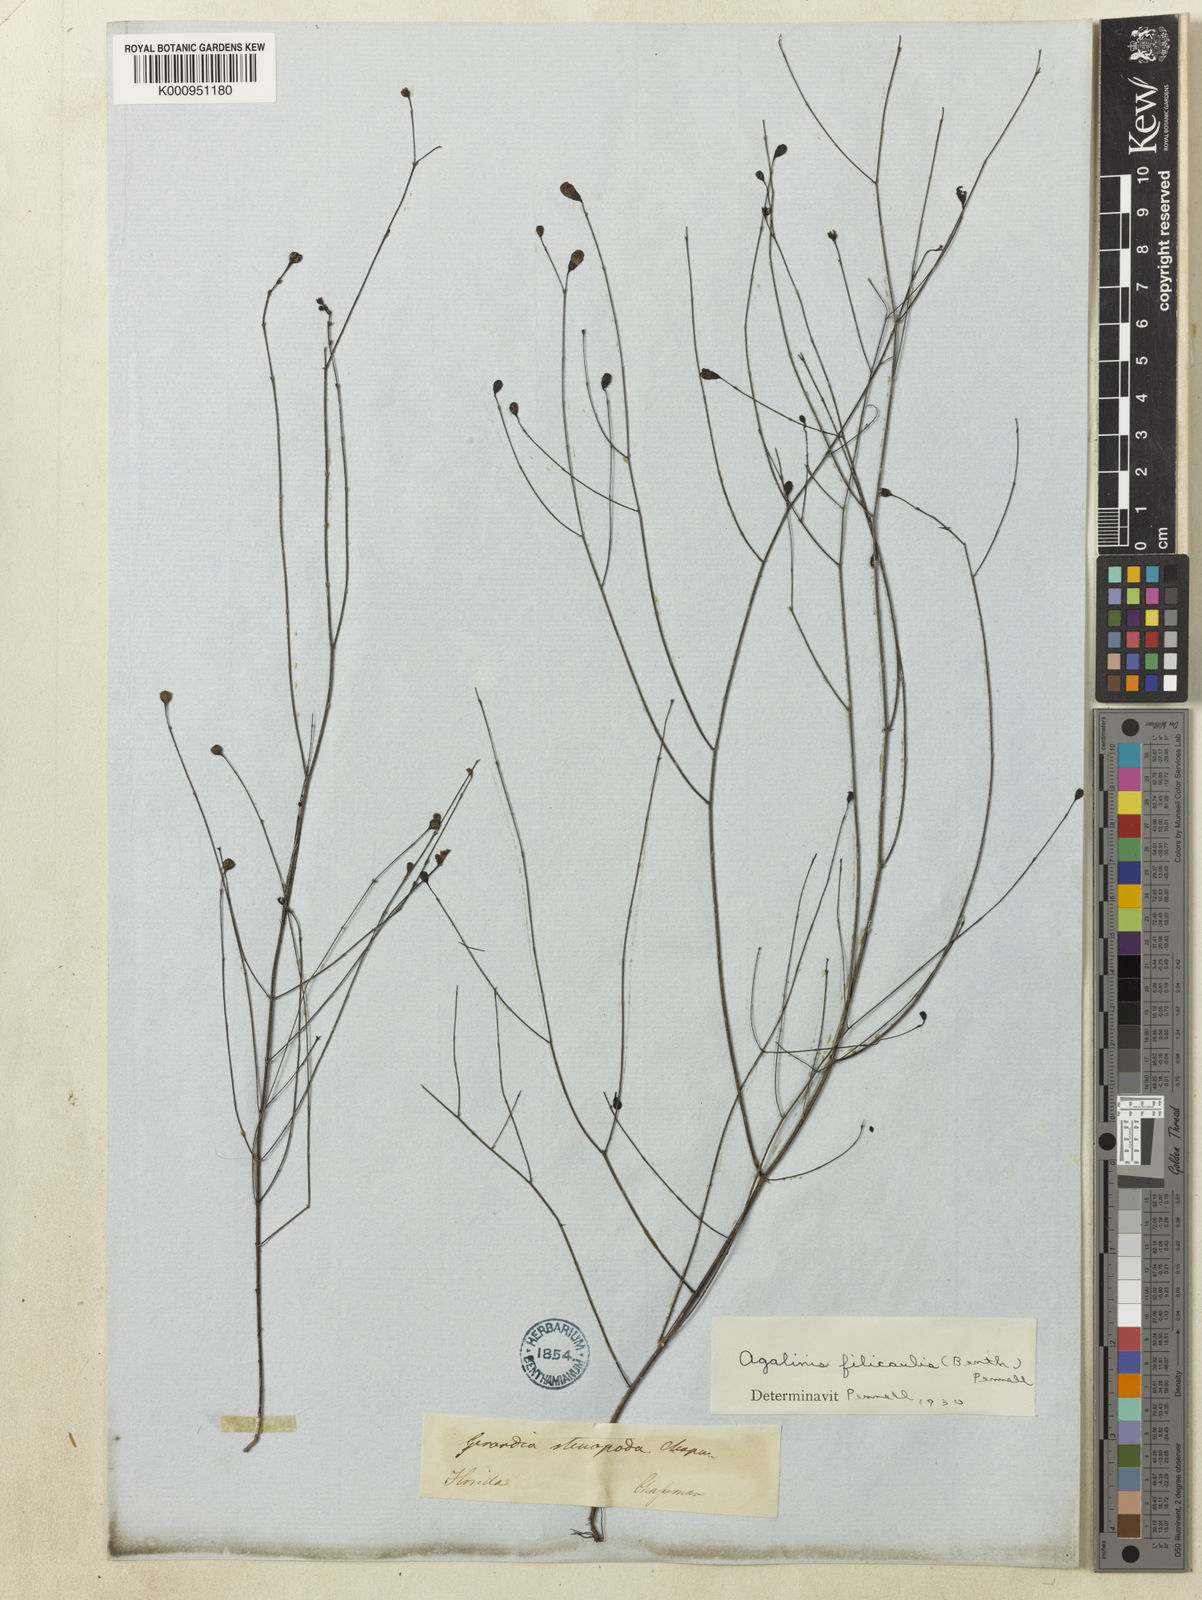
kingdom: Plantae
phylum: Tracheophyta
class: Magnoliopsida
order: Lamiales
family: Orobanchaceae
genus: Agalinis
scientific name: Agalinis filicaulis
